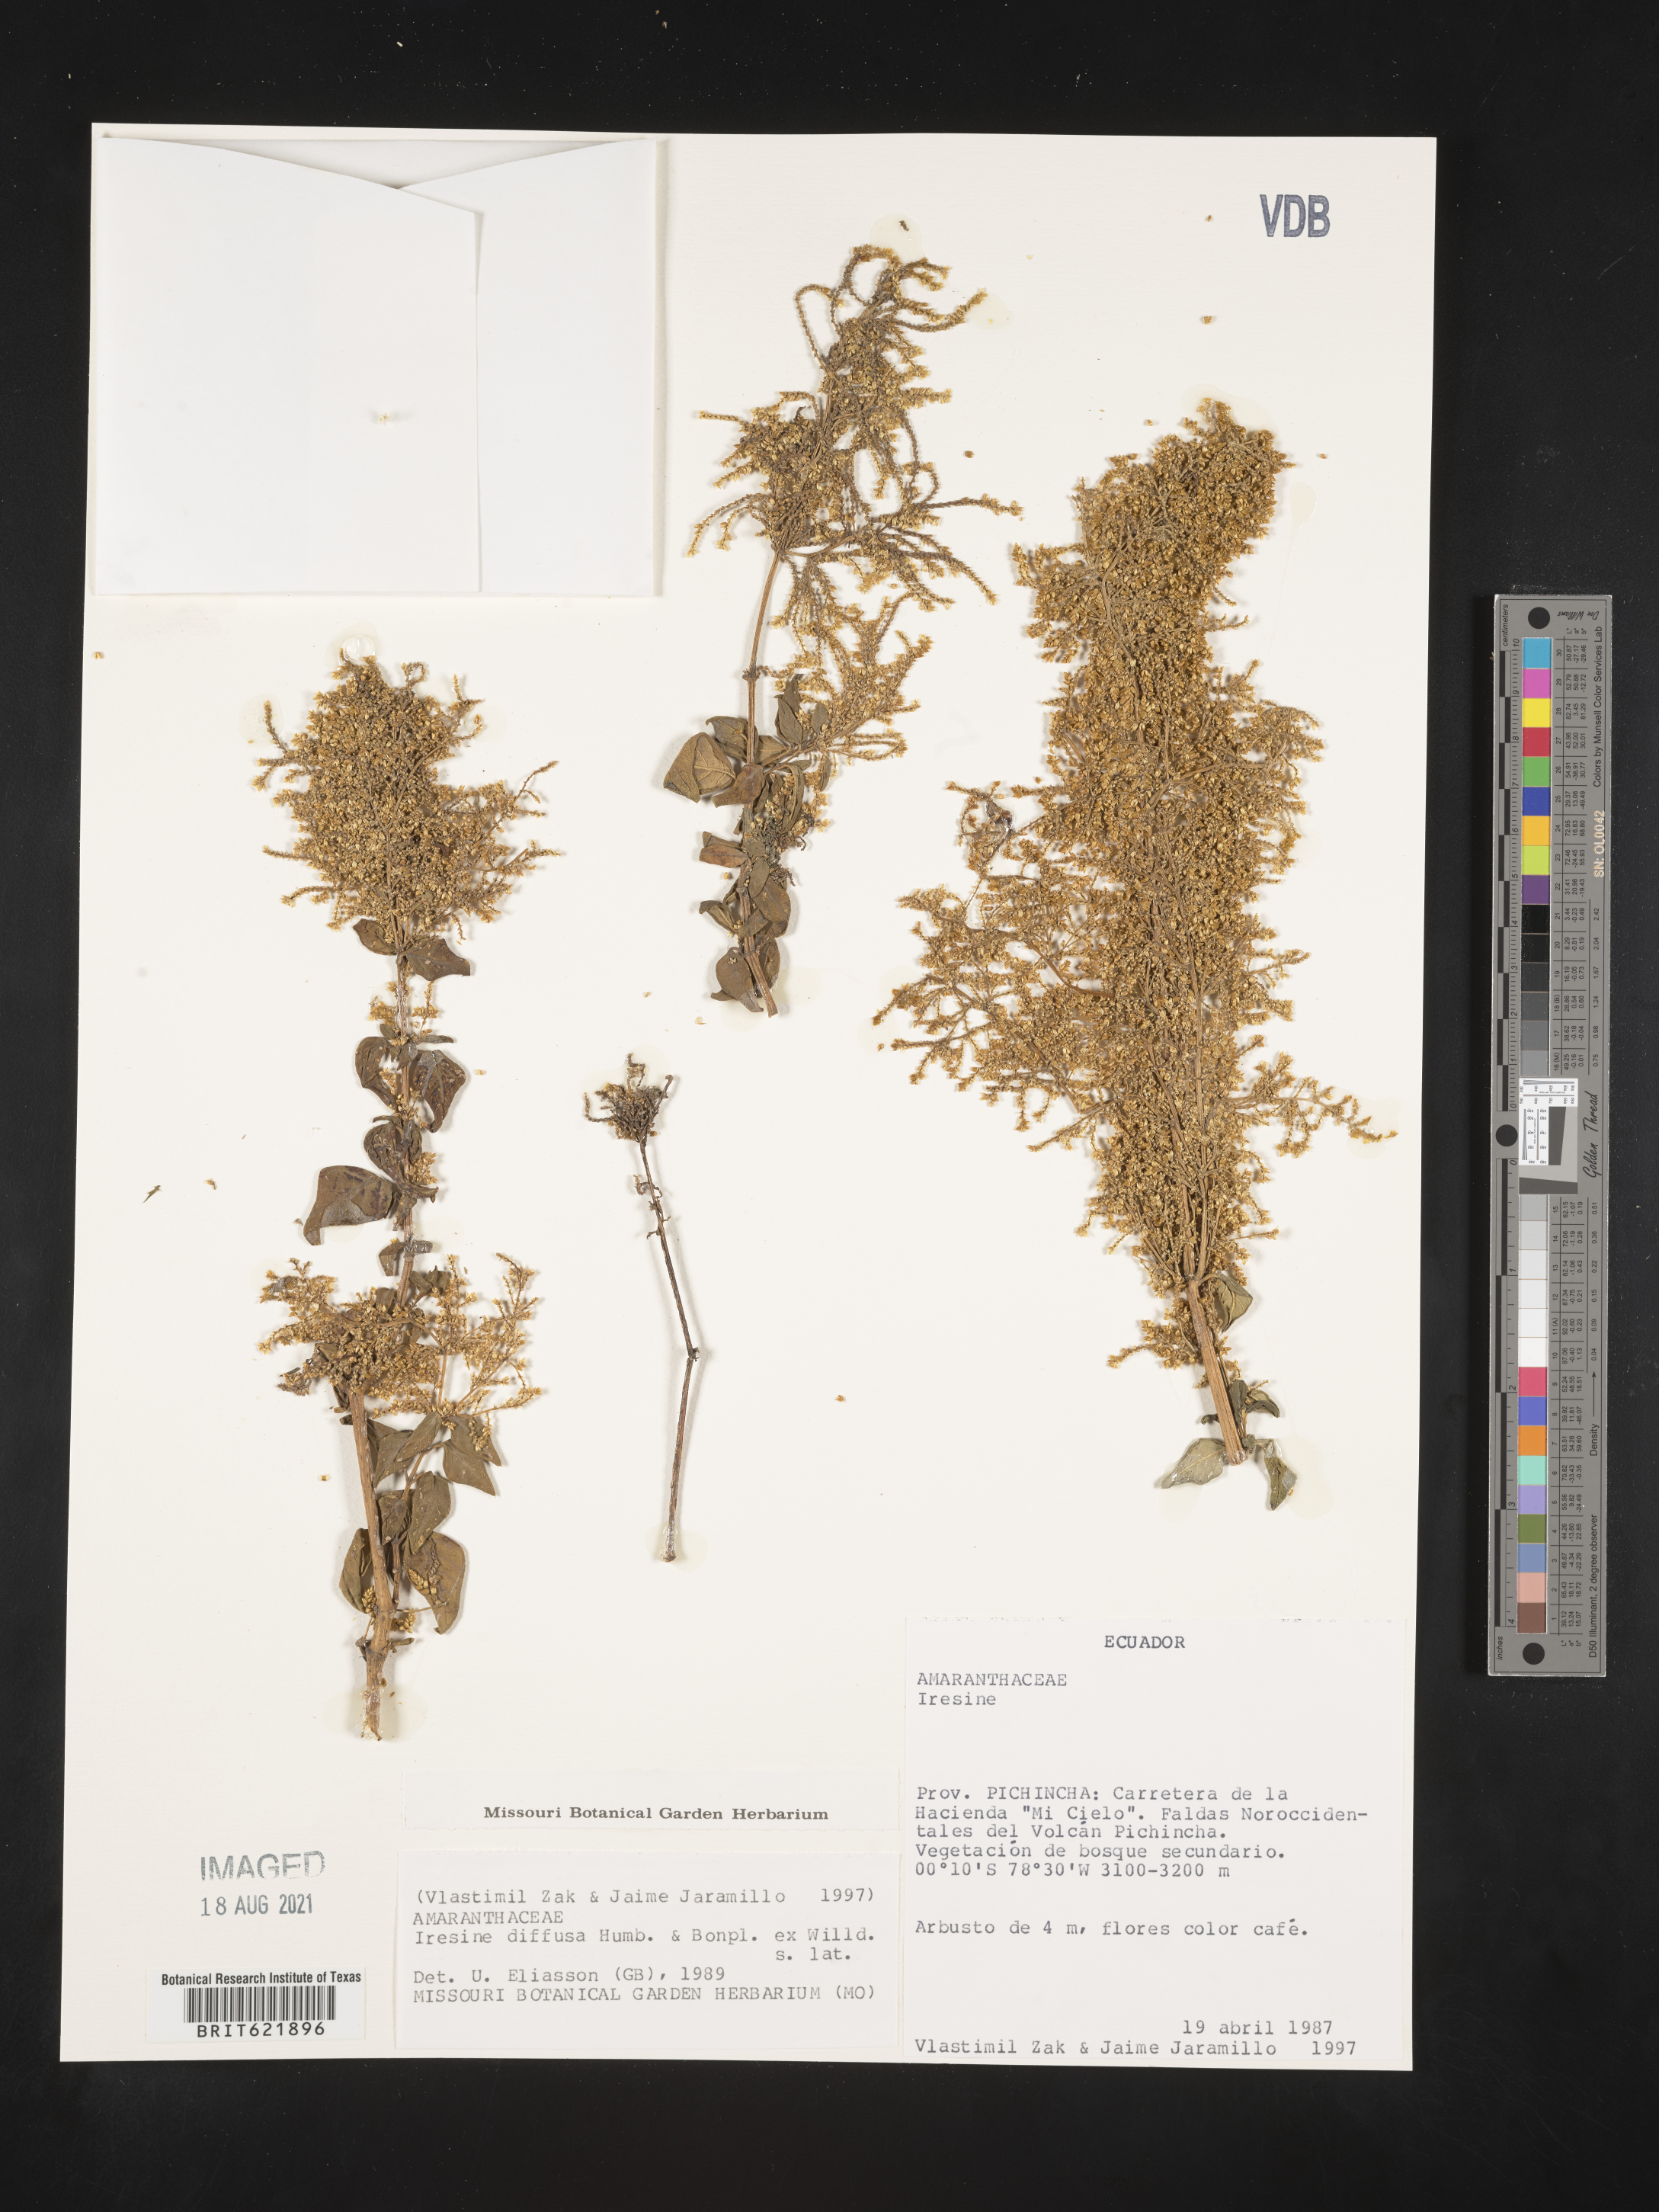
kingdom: Plantae
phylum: Tracheophyta
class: Magnoliopsida
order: Caryophyllales
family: Amaranthaceae
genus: Iresine
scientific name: Iresine diffusa
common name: Juba's-bush
